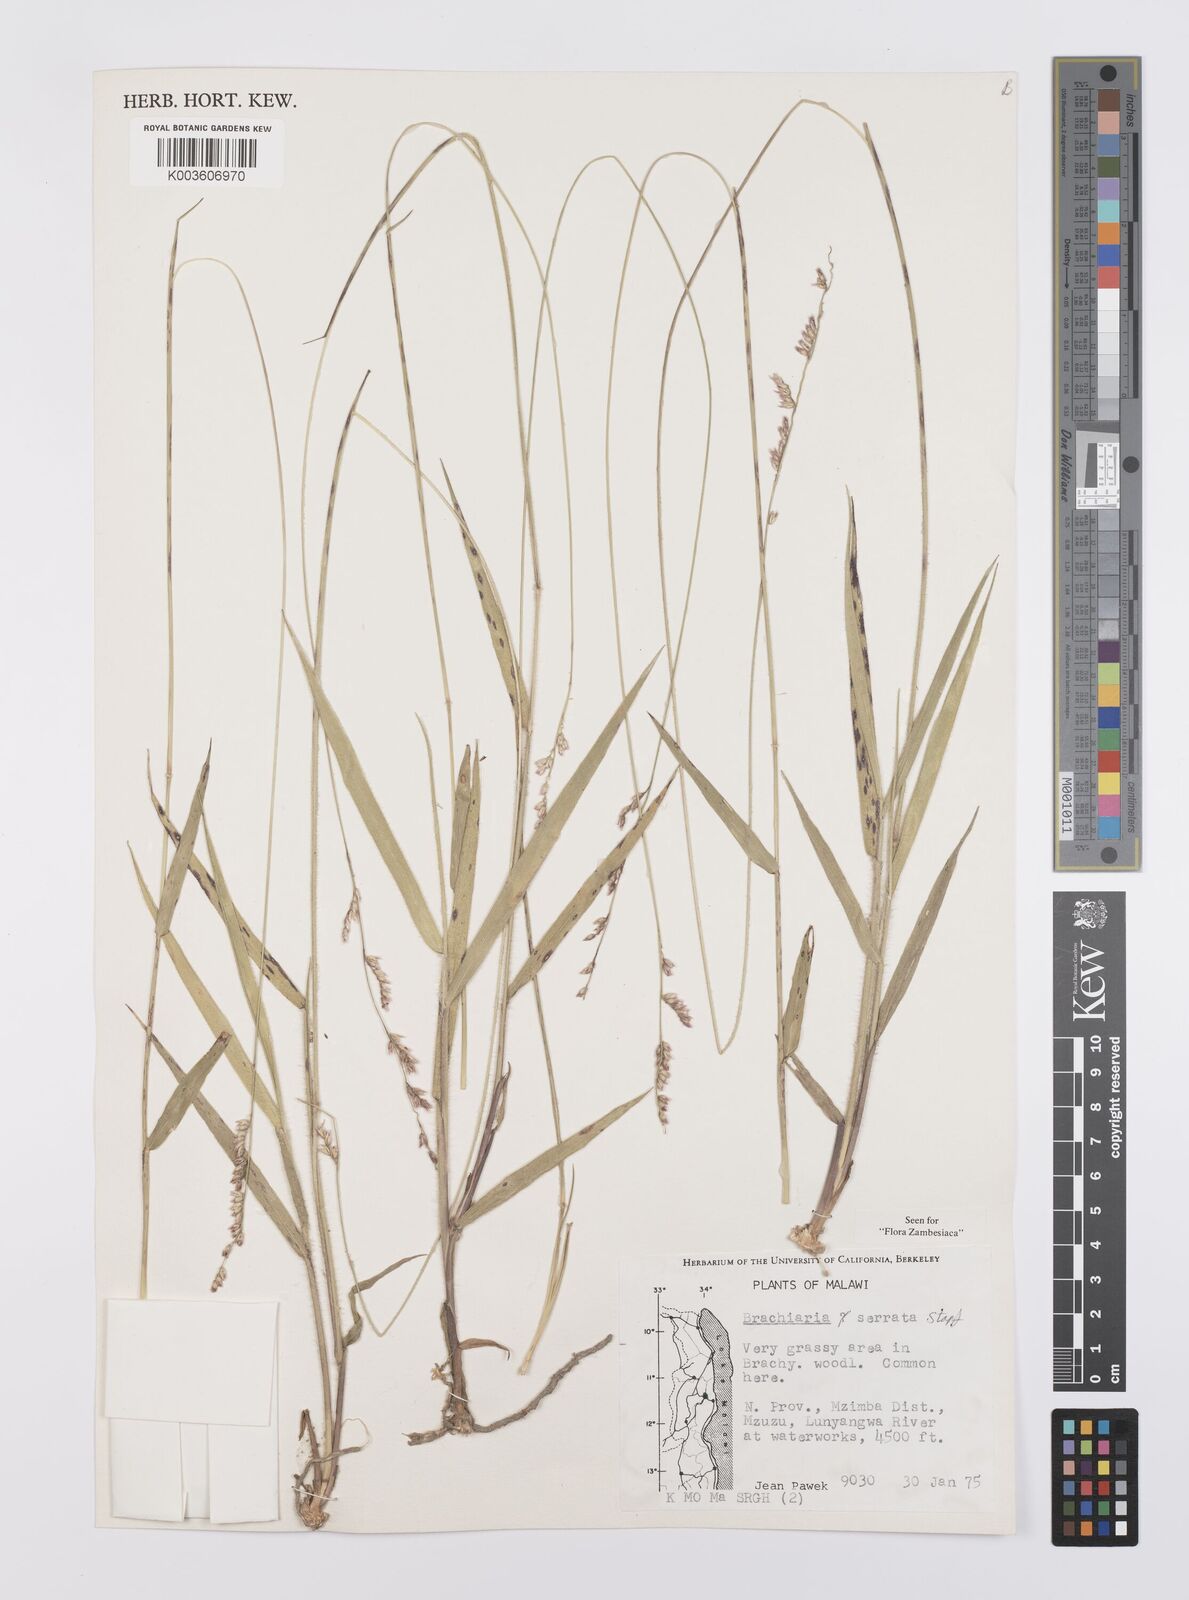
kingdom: Plantae
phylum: Tracheophyta
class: Liliopsida
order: Poales
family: Poaceae
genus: Urochloa
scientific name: Urochloa serrata
